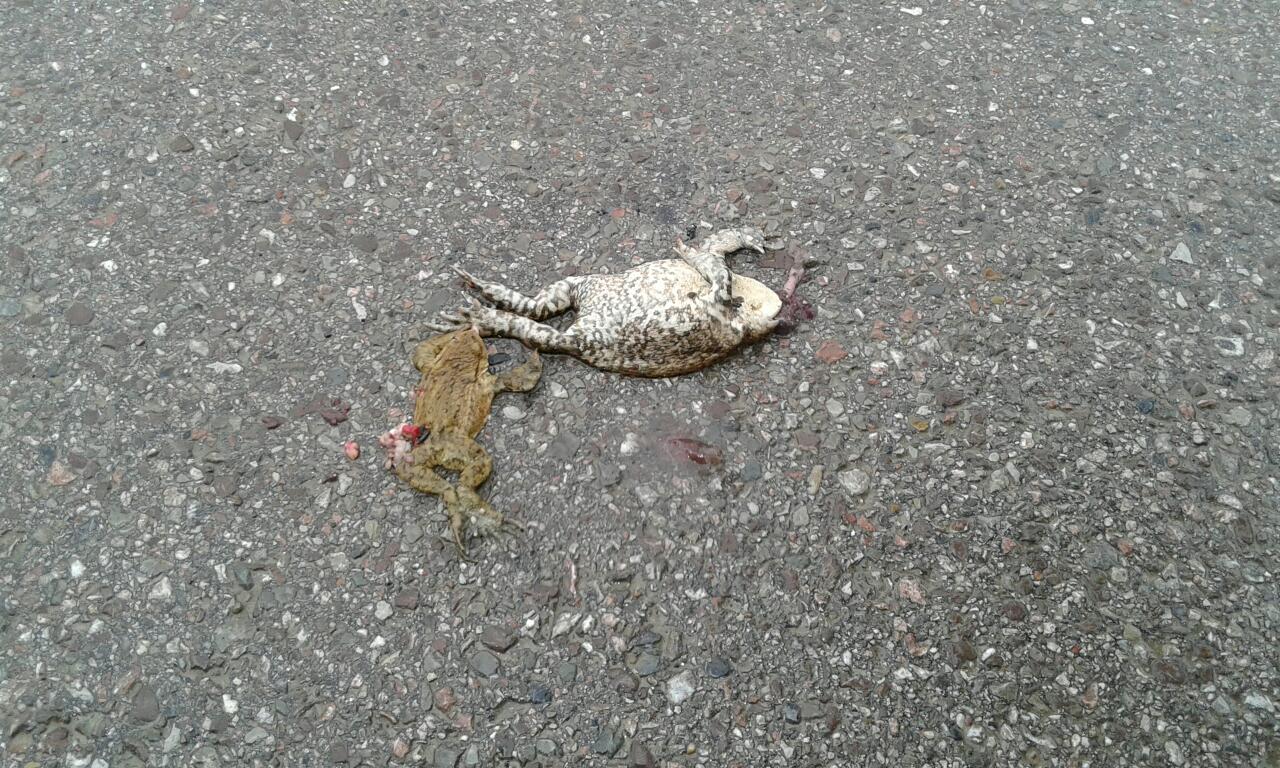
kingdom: Animalia
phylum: Chordata
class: Amphibia
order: Anura
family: Bufonidae
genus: Bufo
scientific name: Bufo bufo
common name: Common toad
